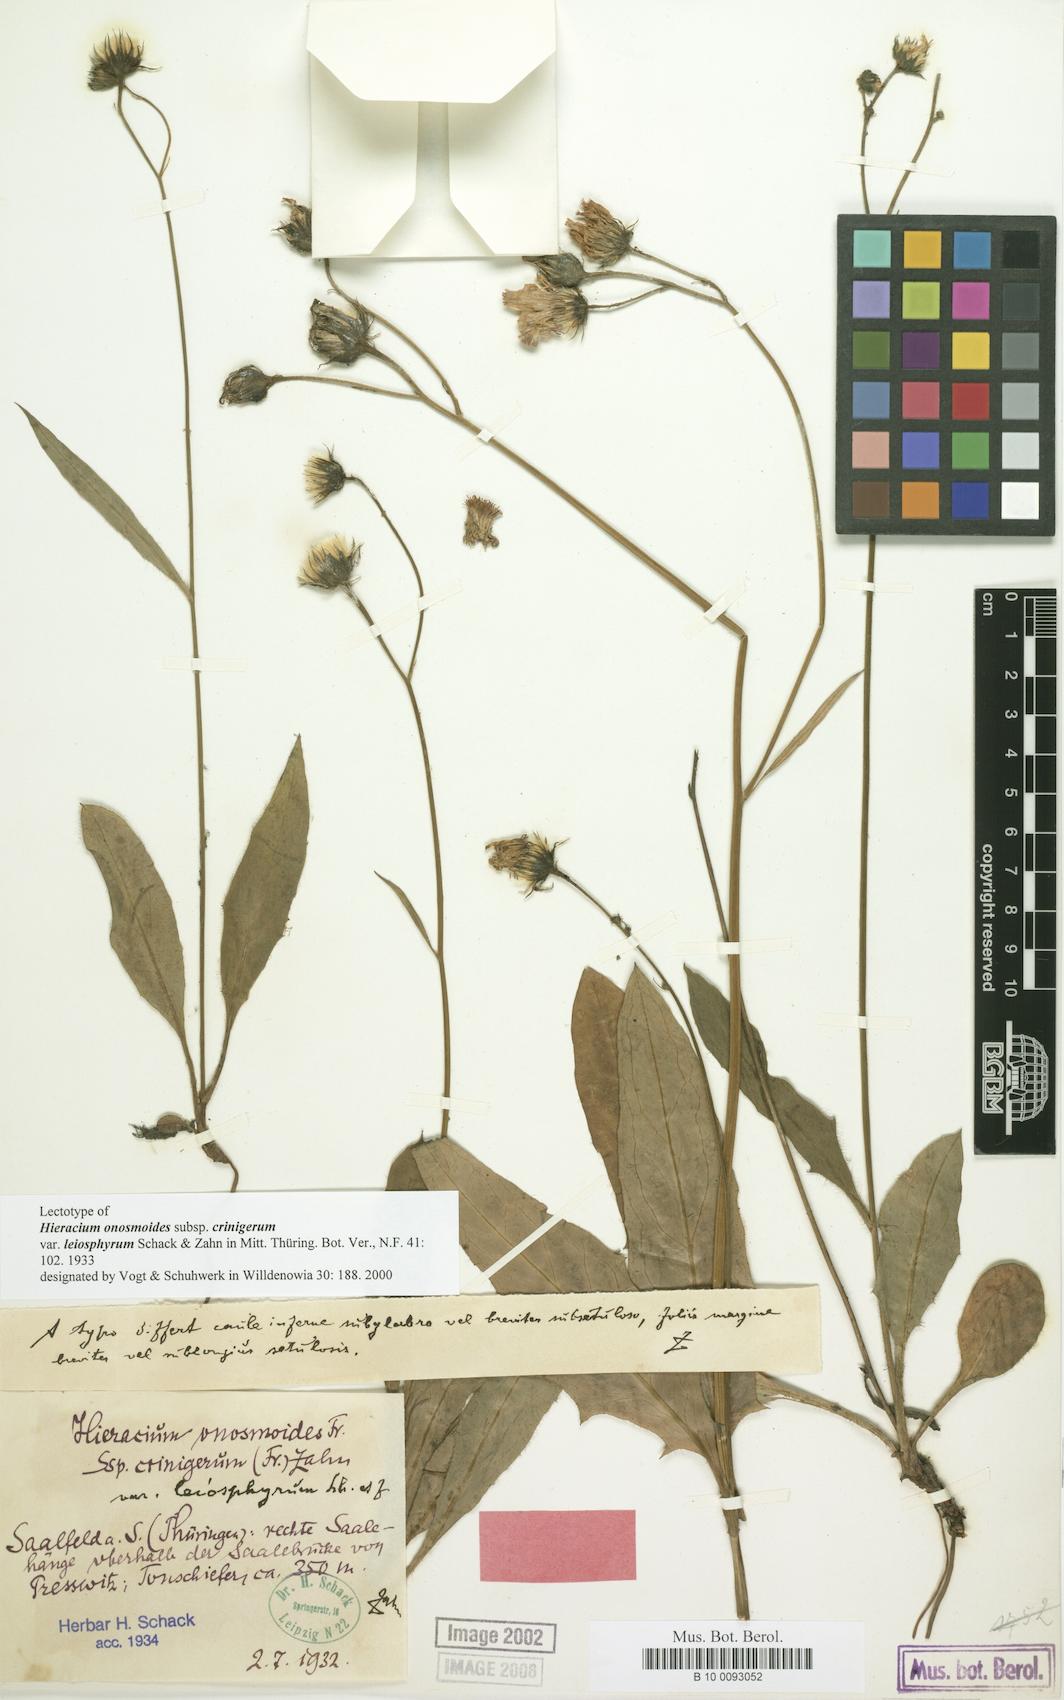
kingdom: Plantae
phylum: Tracheophyta
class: Magnoliopsida
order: Asterales
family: Asteraceae
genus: Hieracium
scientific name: Hieracium onosmoides
